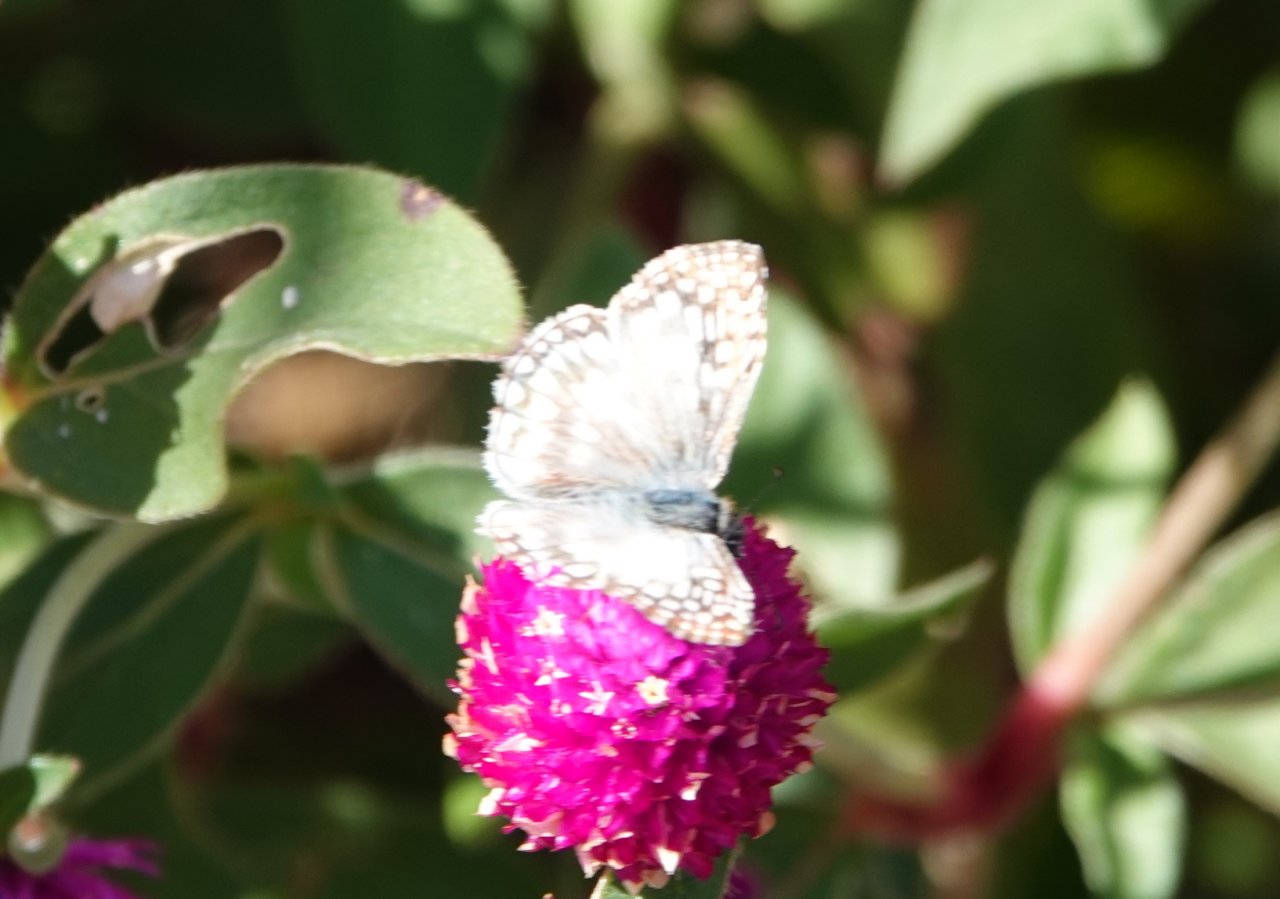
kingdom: Animalia
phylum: Arthropoda
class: Insecta
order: Lepidoptera
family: Hesperiidae
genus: Pyrgus
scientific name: Pyrgus communis
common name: White Checkered-Skipper
